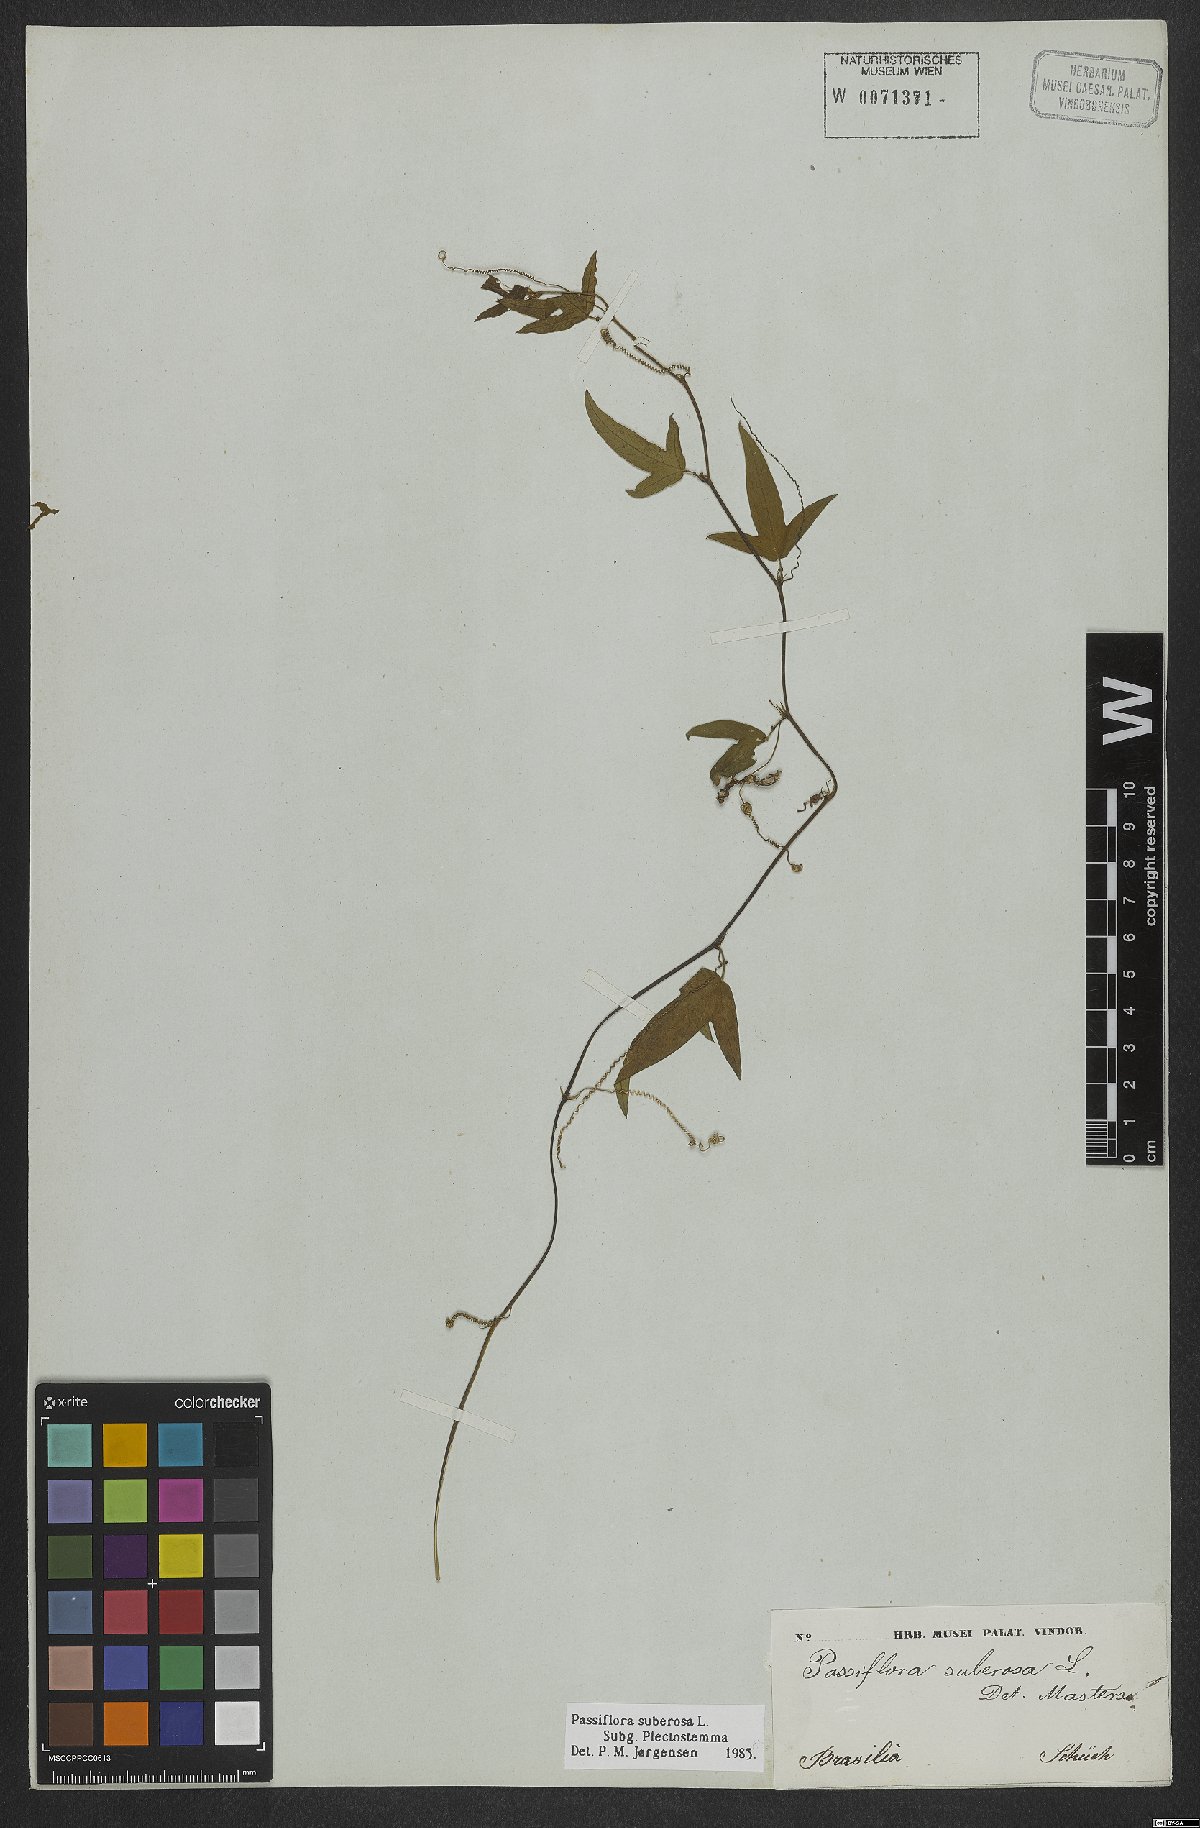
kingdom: Plantae
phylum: Tracheophyta
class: Magnoliopsida
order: Malpighiales
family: Passifloraceae
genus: Passiflora
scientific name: Passiflora suberosa
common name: Wild passionfruit
